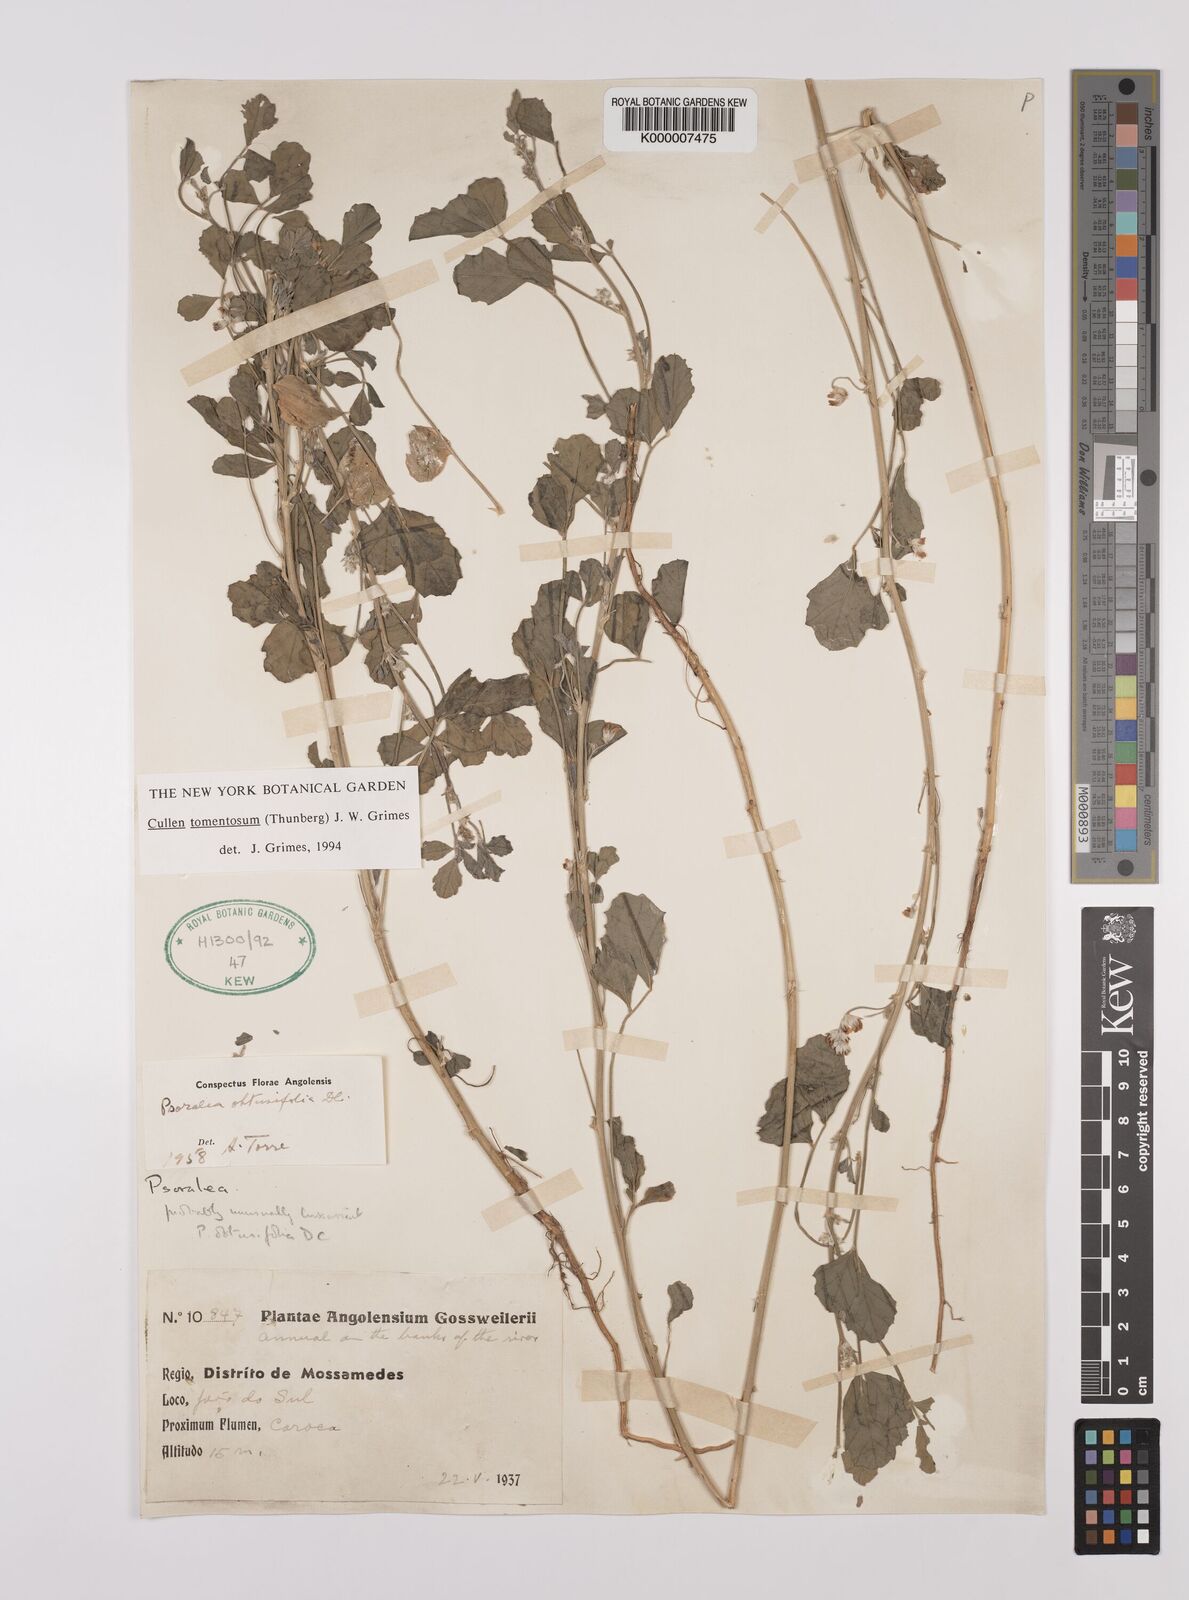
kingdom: Plantae
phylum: Tracheophyta
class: Magnoliopsida
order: Fabales
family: Fabaceae
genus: Cullen
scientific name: Cullen tomentosum
